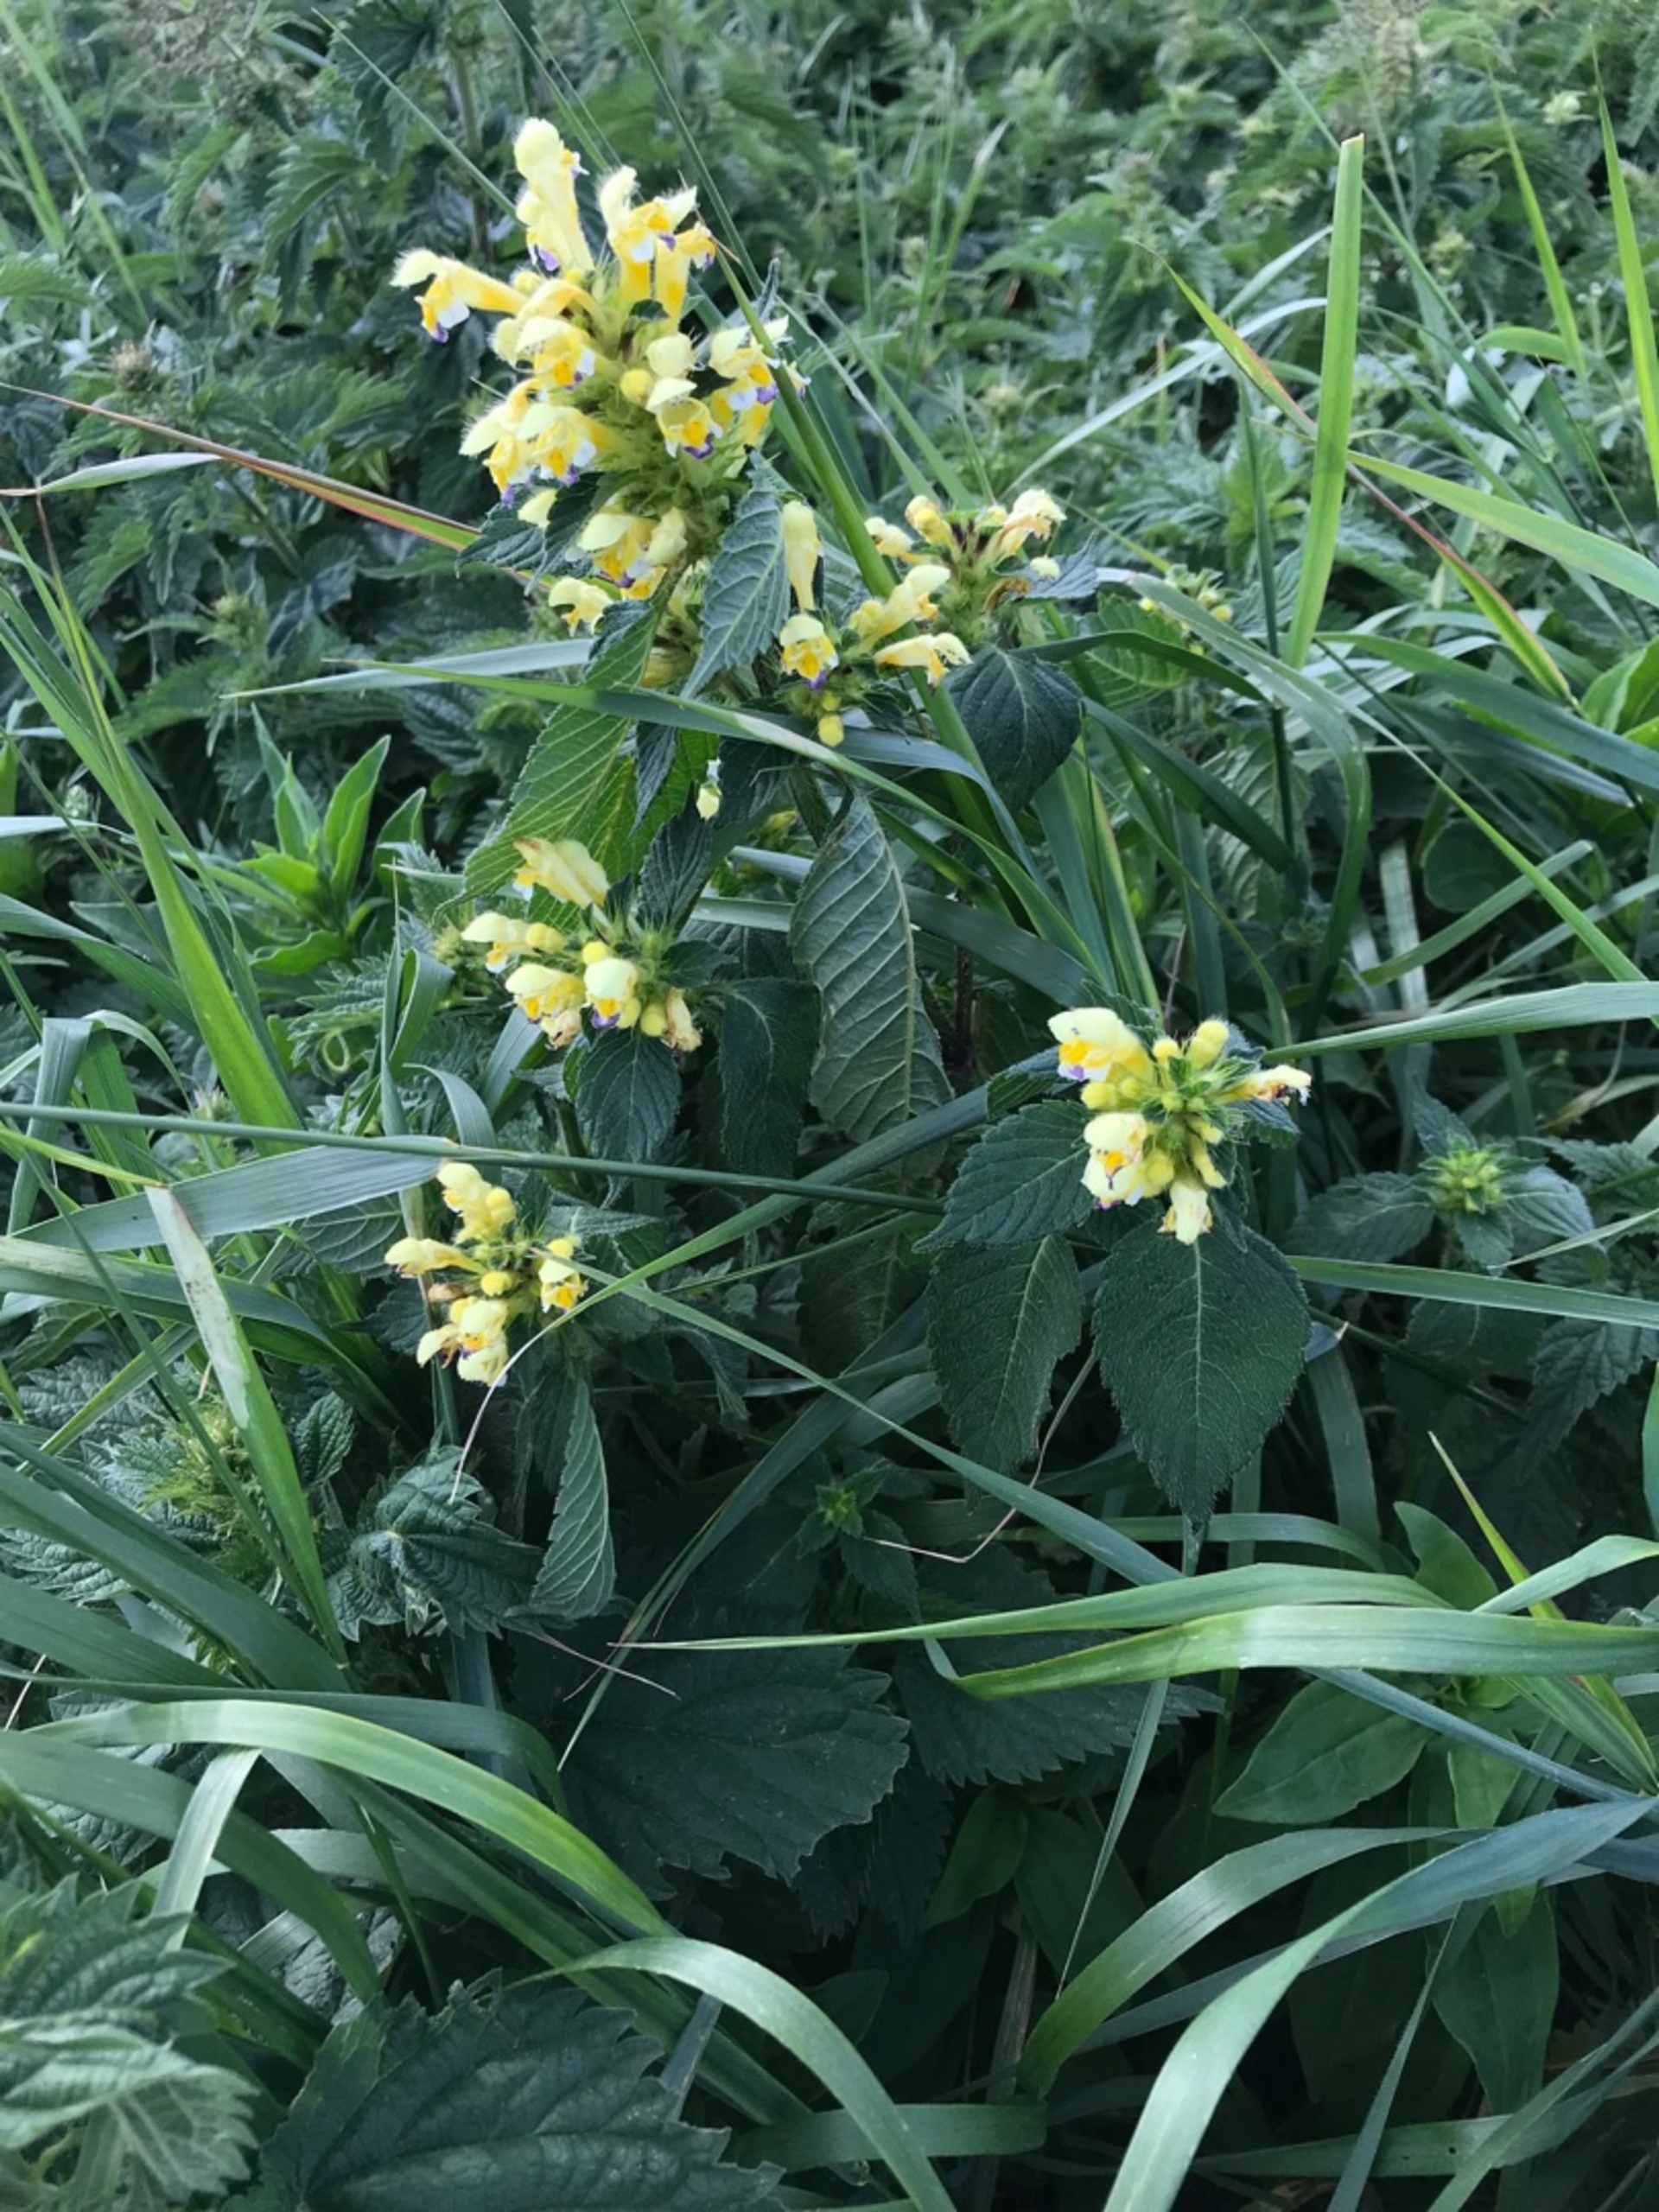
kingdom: Plantae
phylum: Tracheophyta
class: Magnoliopsida
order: Lamiales
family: Lamiaceae
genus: Galeopsis
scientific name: Galeopsis speciosa
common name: Hamp-hanekro
